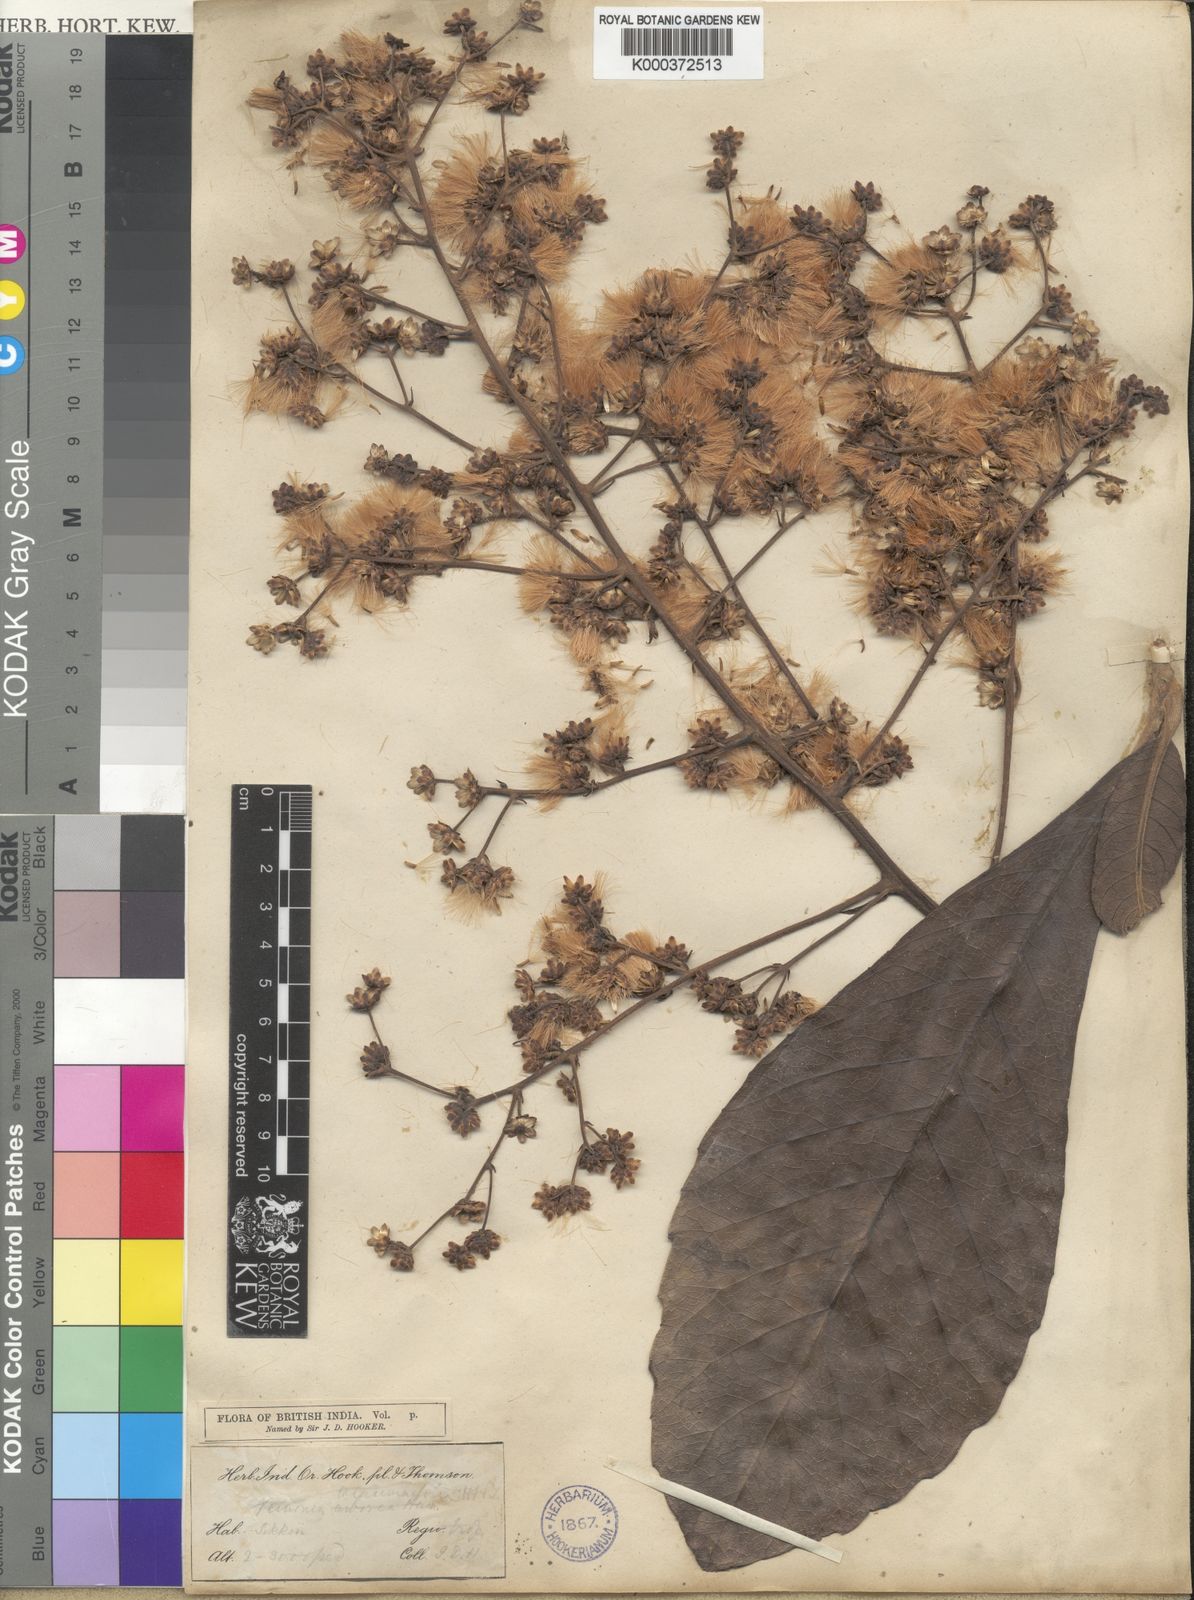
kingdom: Plantae
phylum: Tracheophyta
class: Magnoliopsida
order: Asterales
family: Asteraceae
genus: Monosis
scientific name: Monosis talaumifolia
